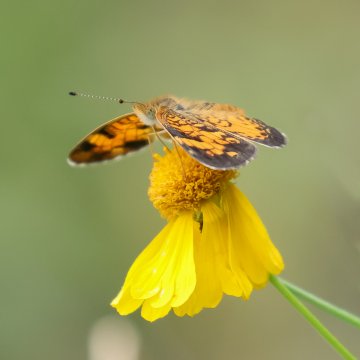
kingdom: Animalia
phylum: Arthropoda
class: Insecta
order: Lepidoptera
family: Nymphalidae
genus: Phyciodes
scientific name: Phyciodes tharos
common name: Pearl Crescent
